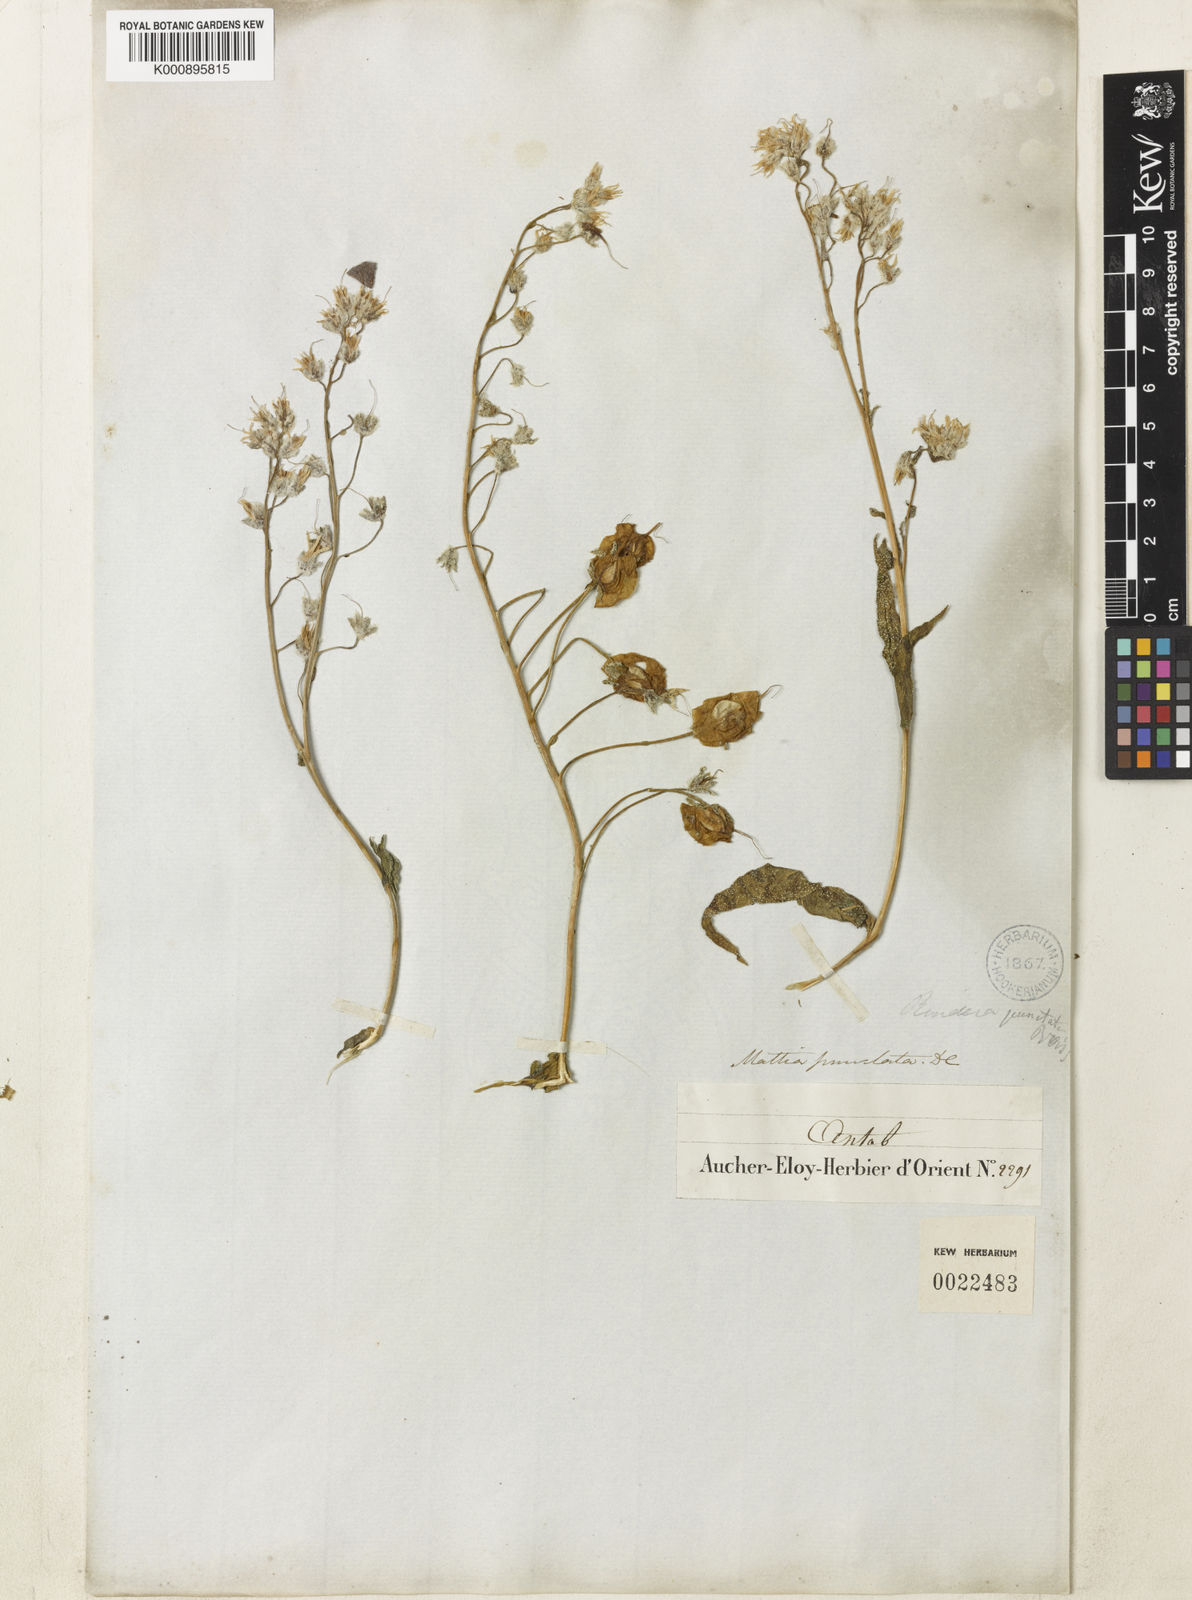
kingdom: Plantae
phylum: Tracheophyta
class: Magnoliopsida
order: Boraginales
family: Boraginaceae
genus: Rindera
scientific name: Rindera lanata
